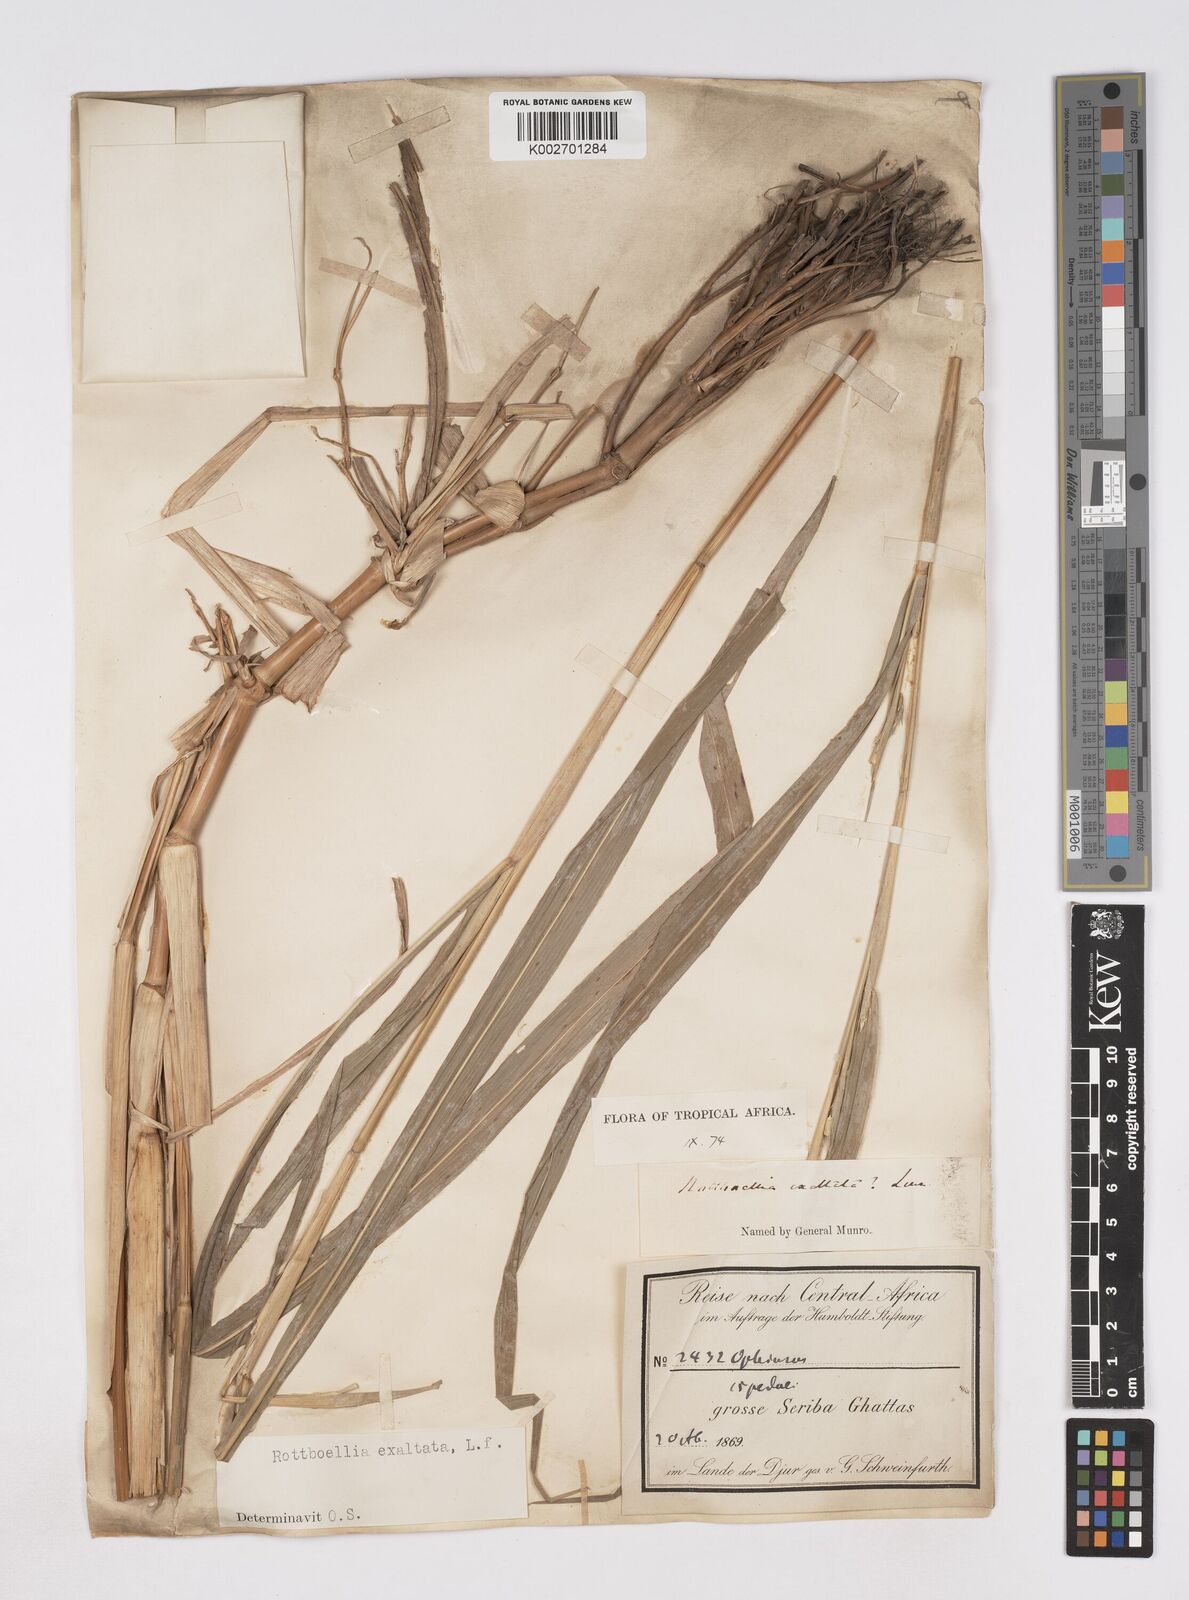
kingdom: Plantae
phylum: Tracheophyta
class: Liliopsida
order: Poales
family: Poaceae
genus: Rottboellia
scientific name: Rottboellia cochinchinensis
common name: Itchgrass
